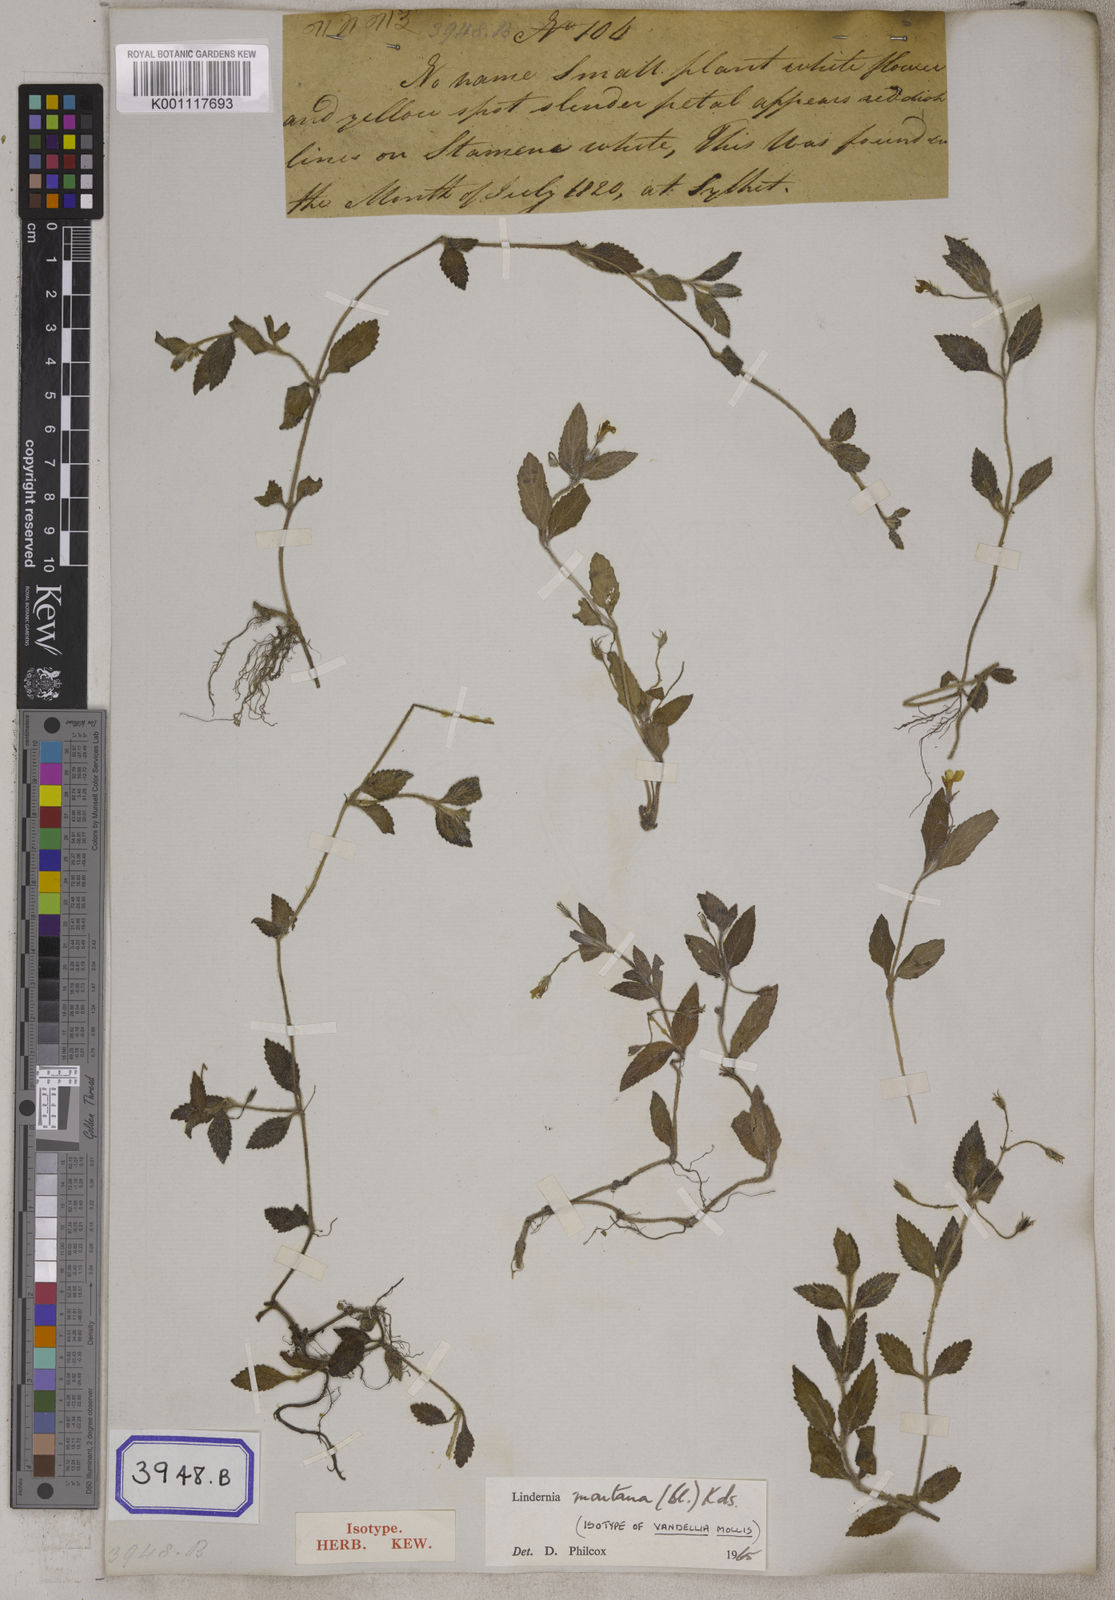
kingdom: Plantae
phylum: Tracheophyta
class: Magnoliopsida
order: Lamiales
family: Linderniaceae
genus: Lindernia
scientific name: Lindernia procumbens
